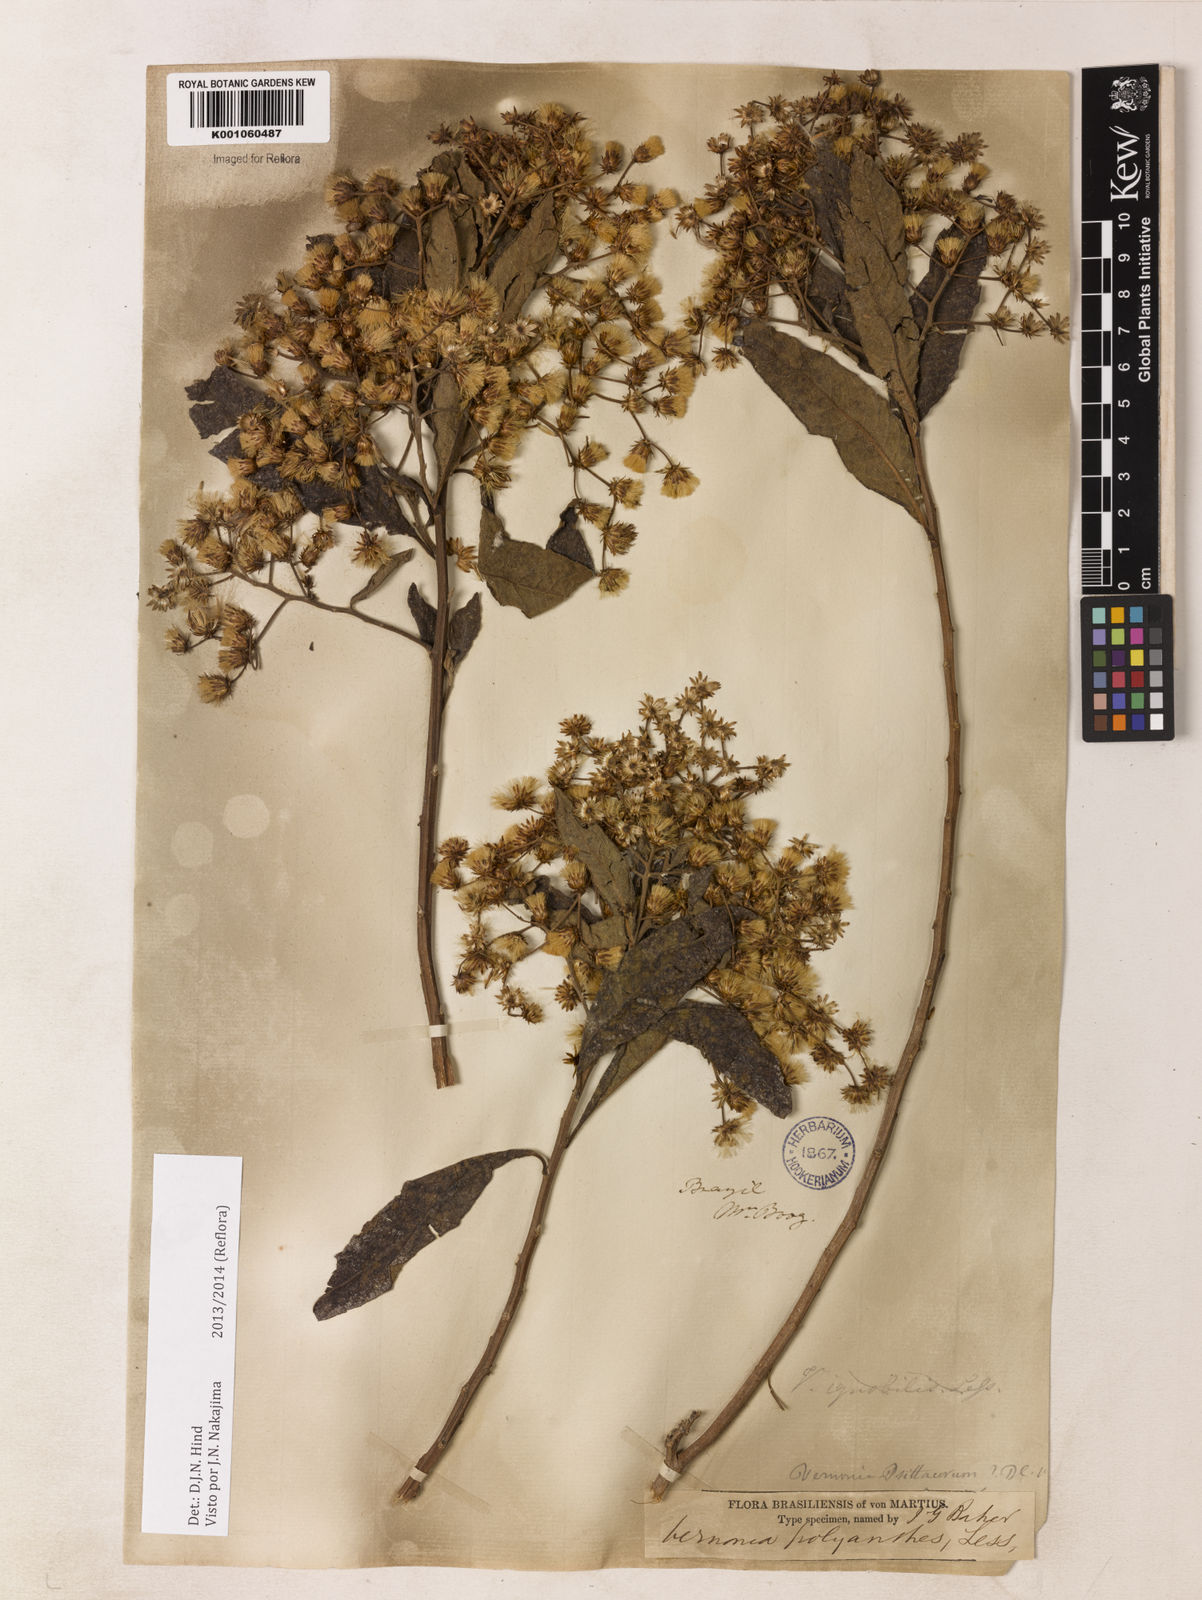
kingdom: Plantae
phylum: Tracheophyta
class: Magnoliopsida
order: Asterales
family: Asteraceae
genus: Vernonanthura
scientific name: Vernonanthura polyanthes
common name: Tree aster
